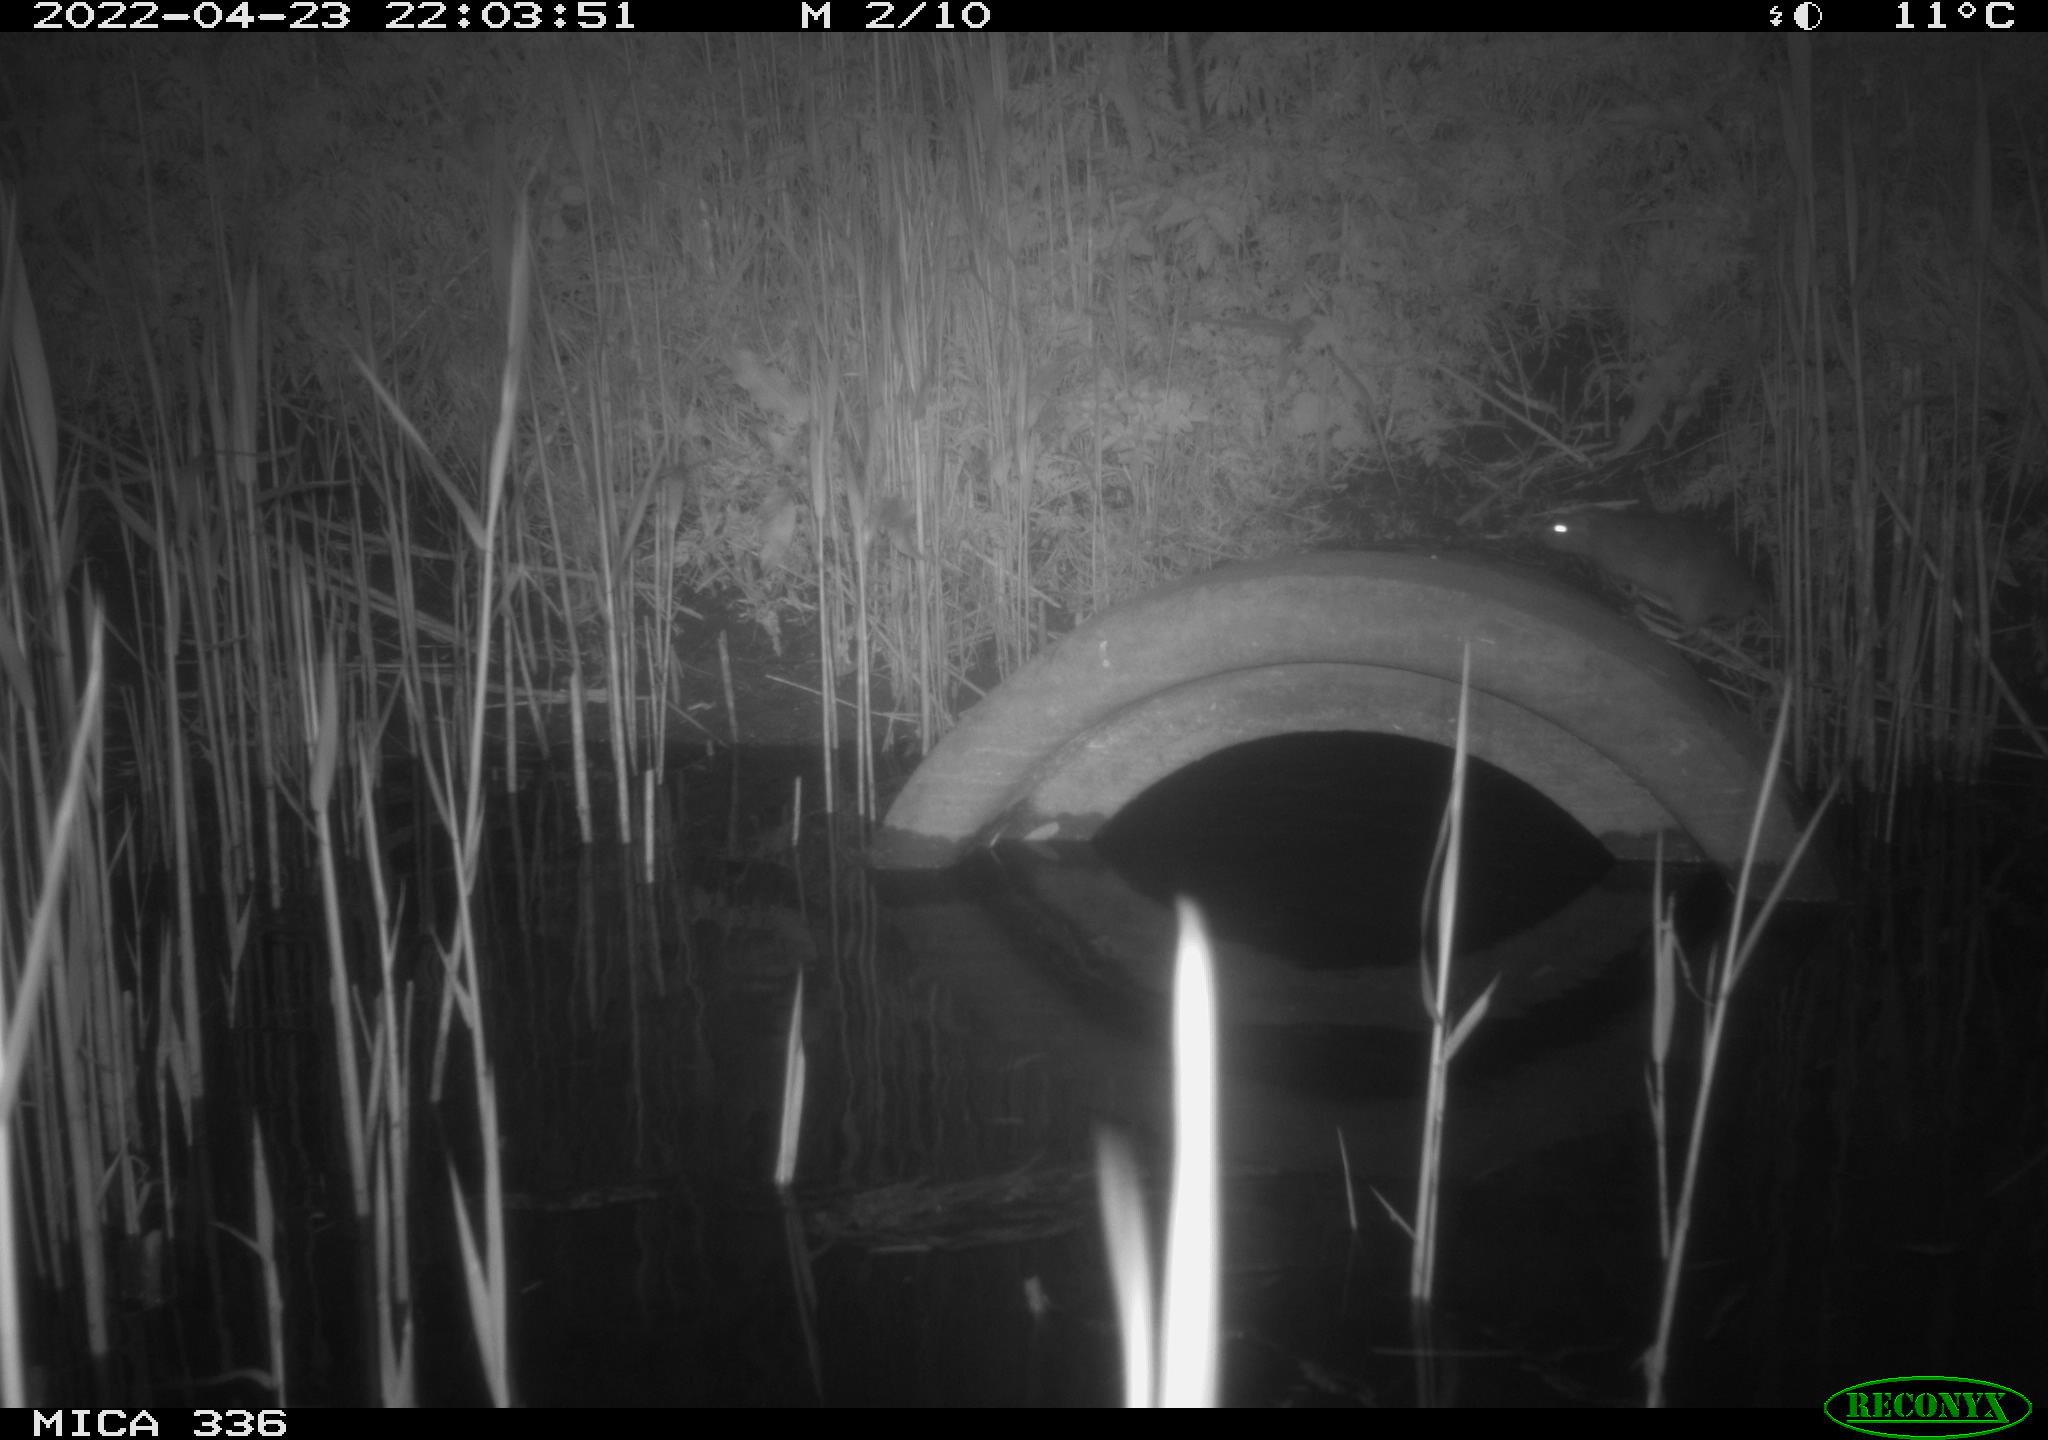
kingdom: Animalia
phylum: Chordata
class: Mammalia
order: Rodentia
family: Muridae
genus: Rattus
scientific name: Rattus norvegicus
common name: Brown rat
